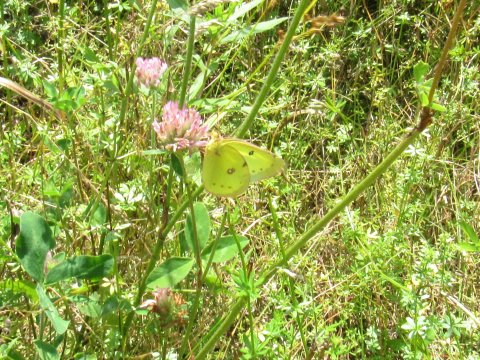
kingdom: Animalia
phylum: Arthropoda
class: Insecta
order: Lepidoptera
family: Pieridae
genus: Colias
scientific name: Colias philodice
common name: Clouded Sulphur
